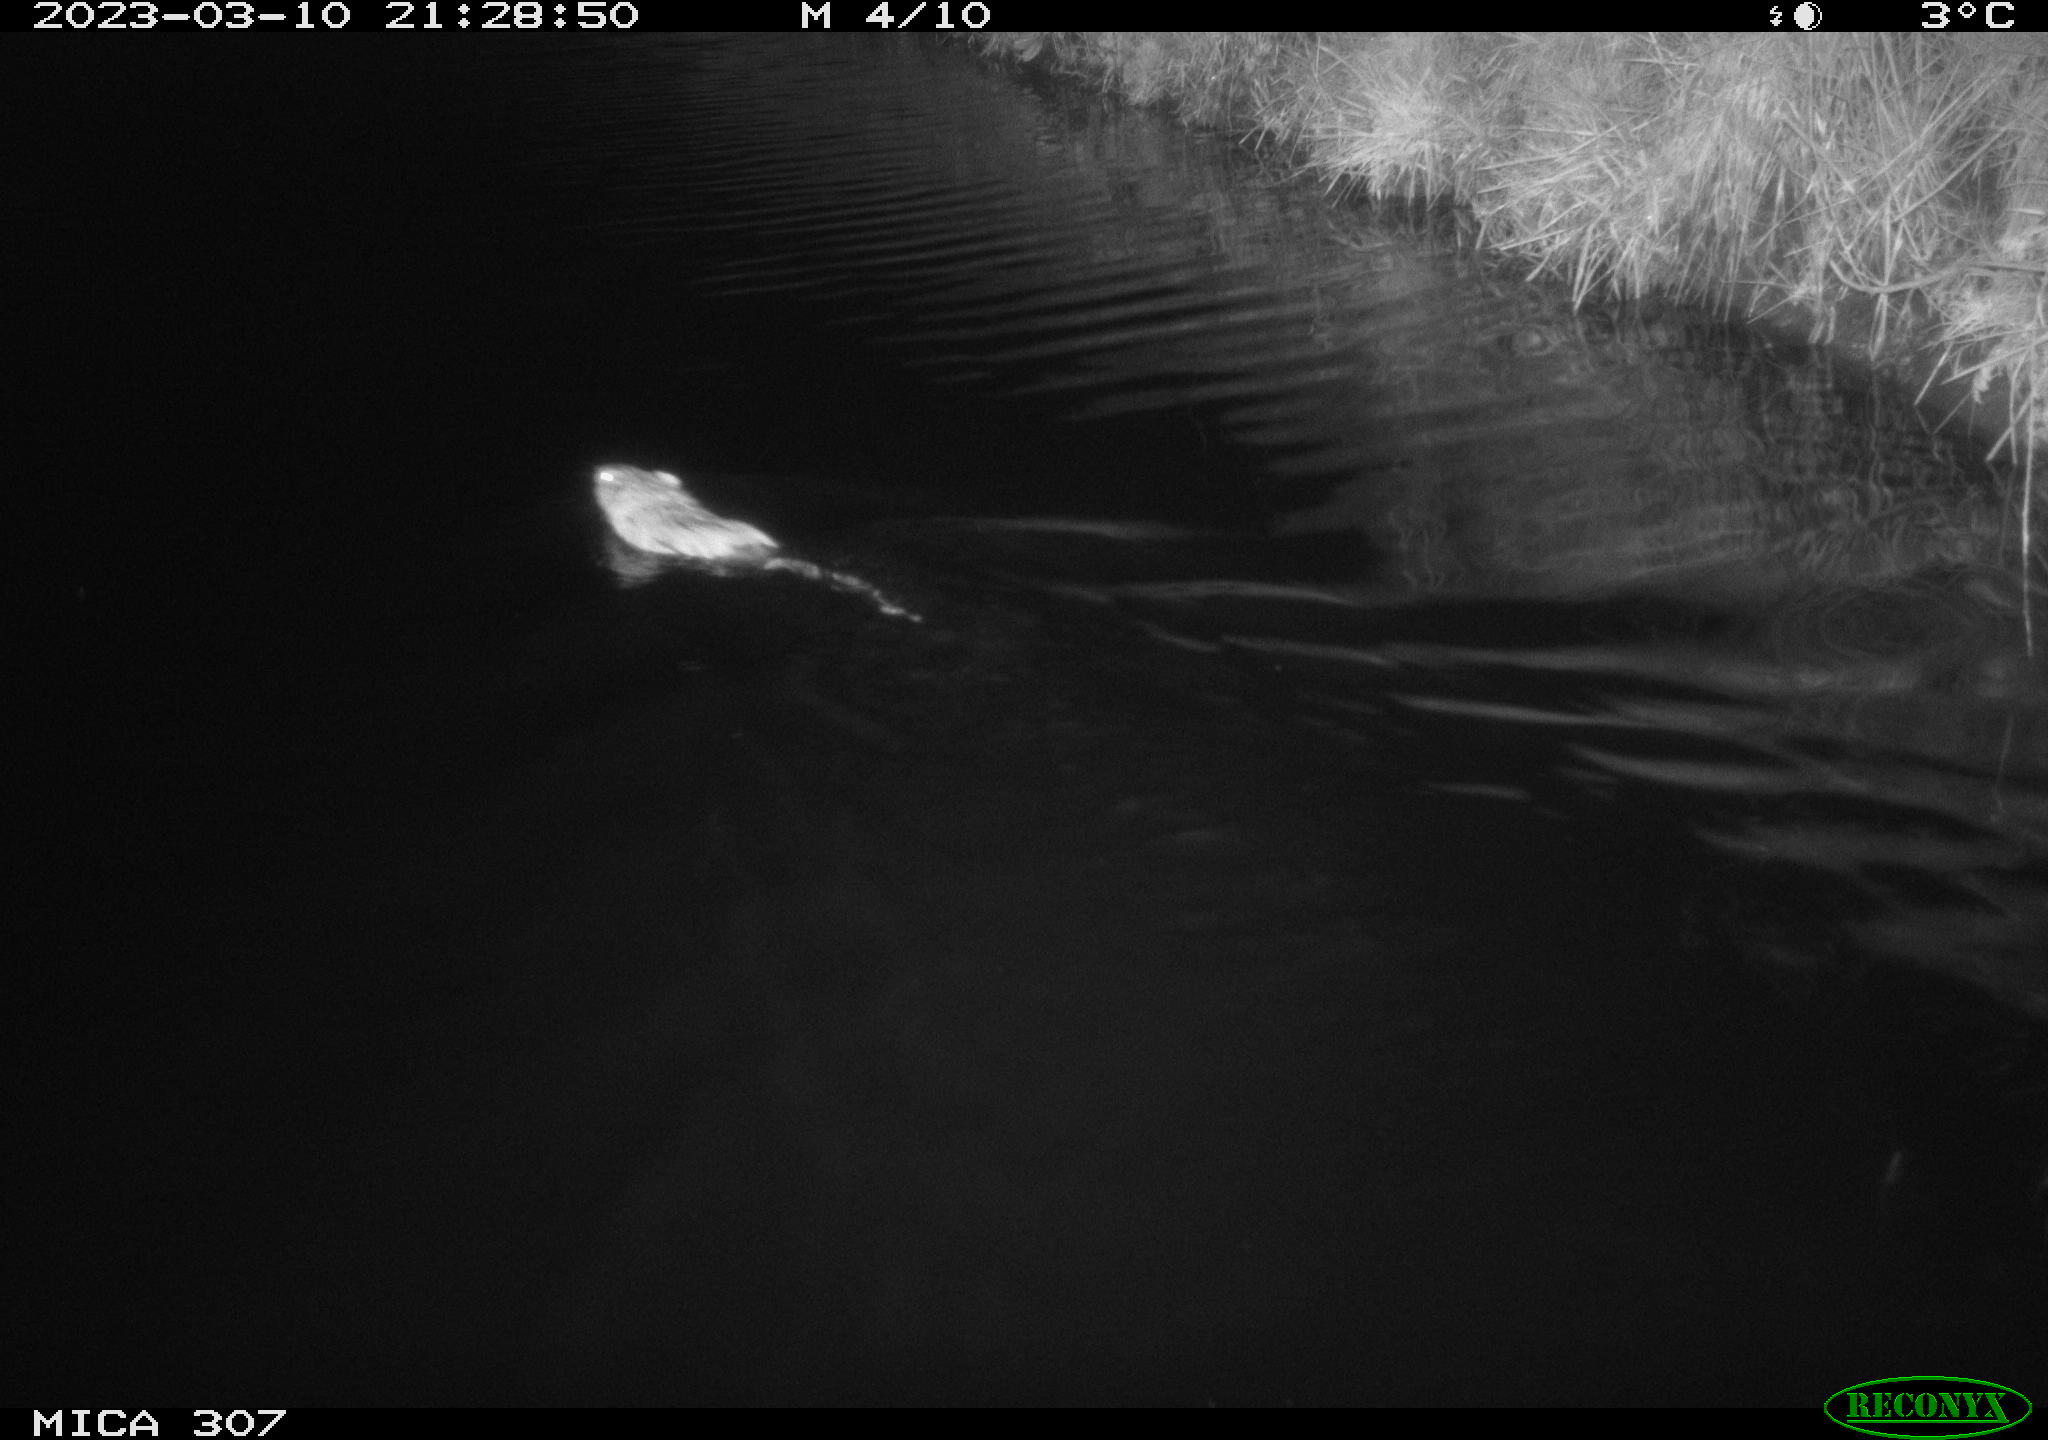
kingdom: Animalia
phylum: Chordata
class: Mammalia
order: Rodentia
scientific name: Rodentia
